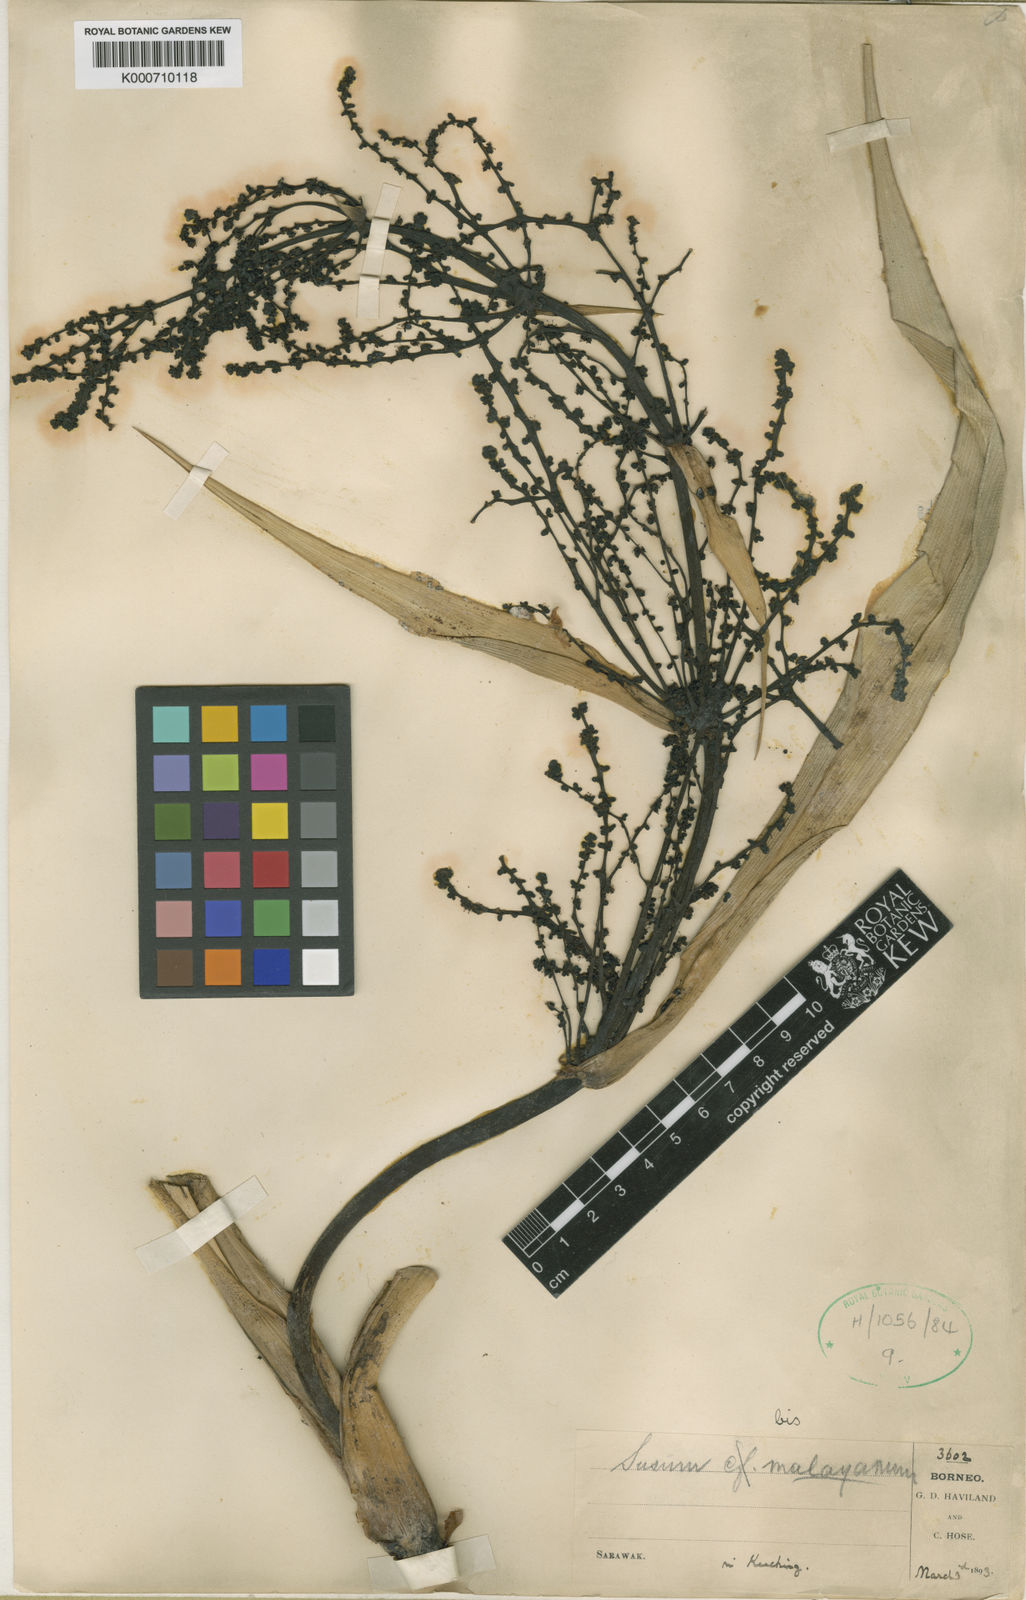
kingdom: Plantae
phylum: Tracheophyta
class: Liliopsida
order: Commelinales
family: Hanguanaceae
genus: Hanguana
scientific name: Hanguana malayana
